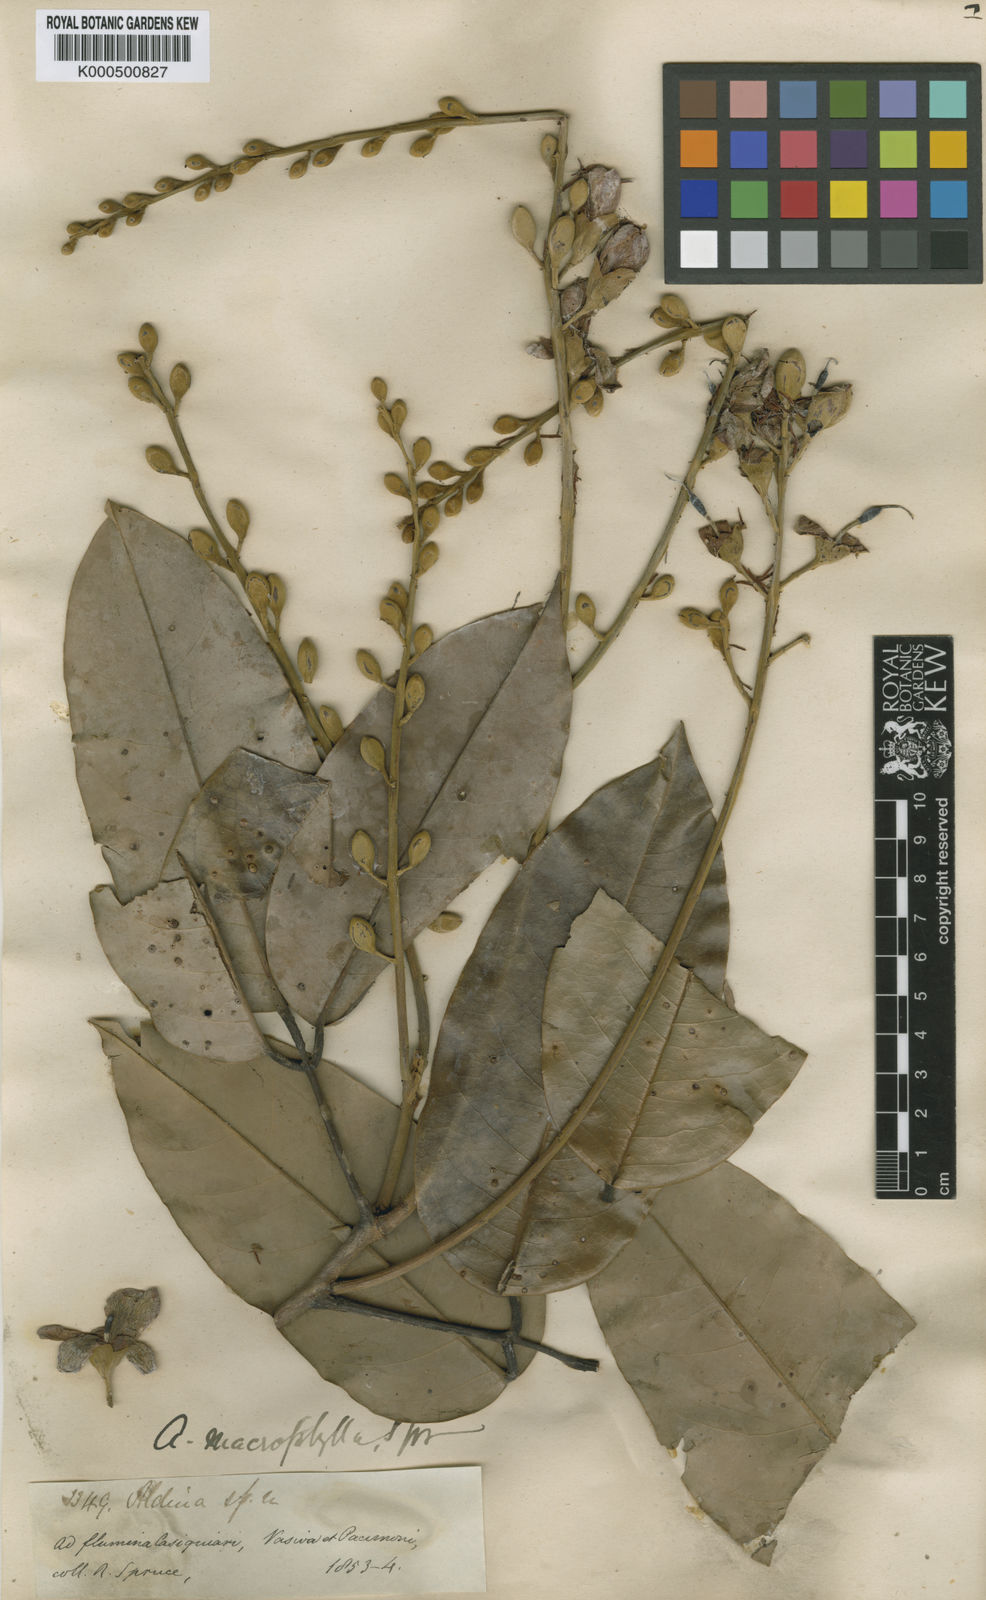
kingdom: Plantae
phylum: Tracheophyta
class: Magnoliopsida
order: Fabales
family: Fabaceae
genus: Aldina
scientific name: Aldina latifolia
